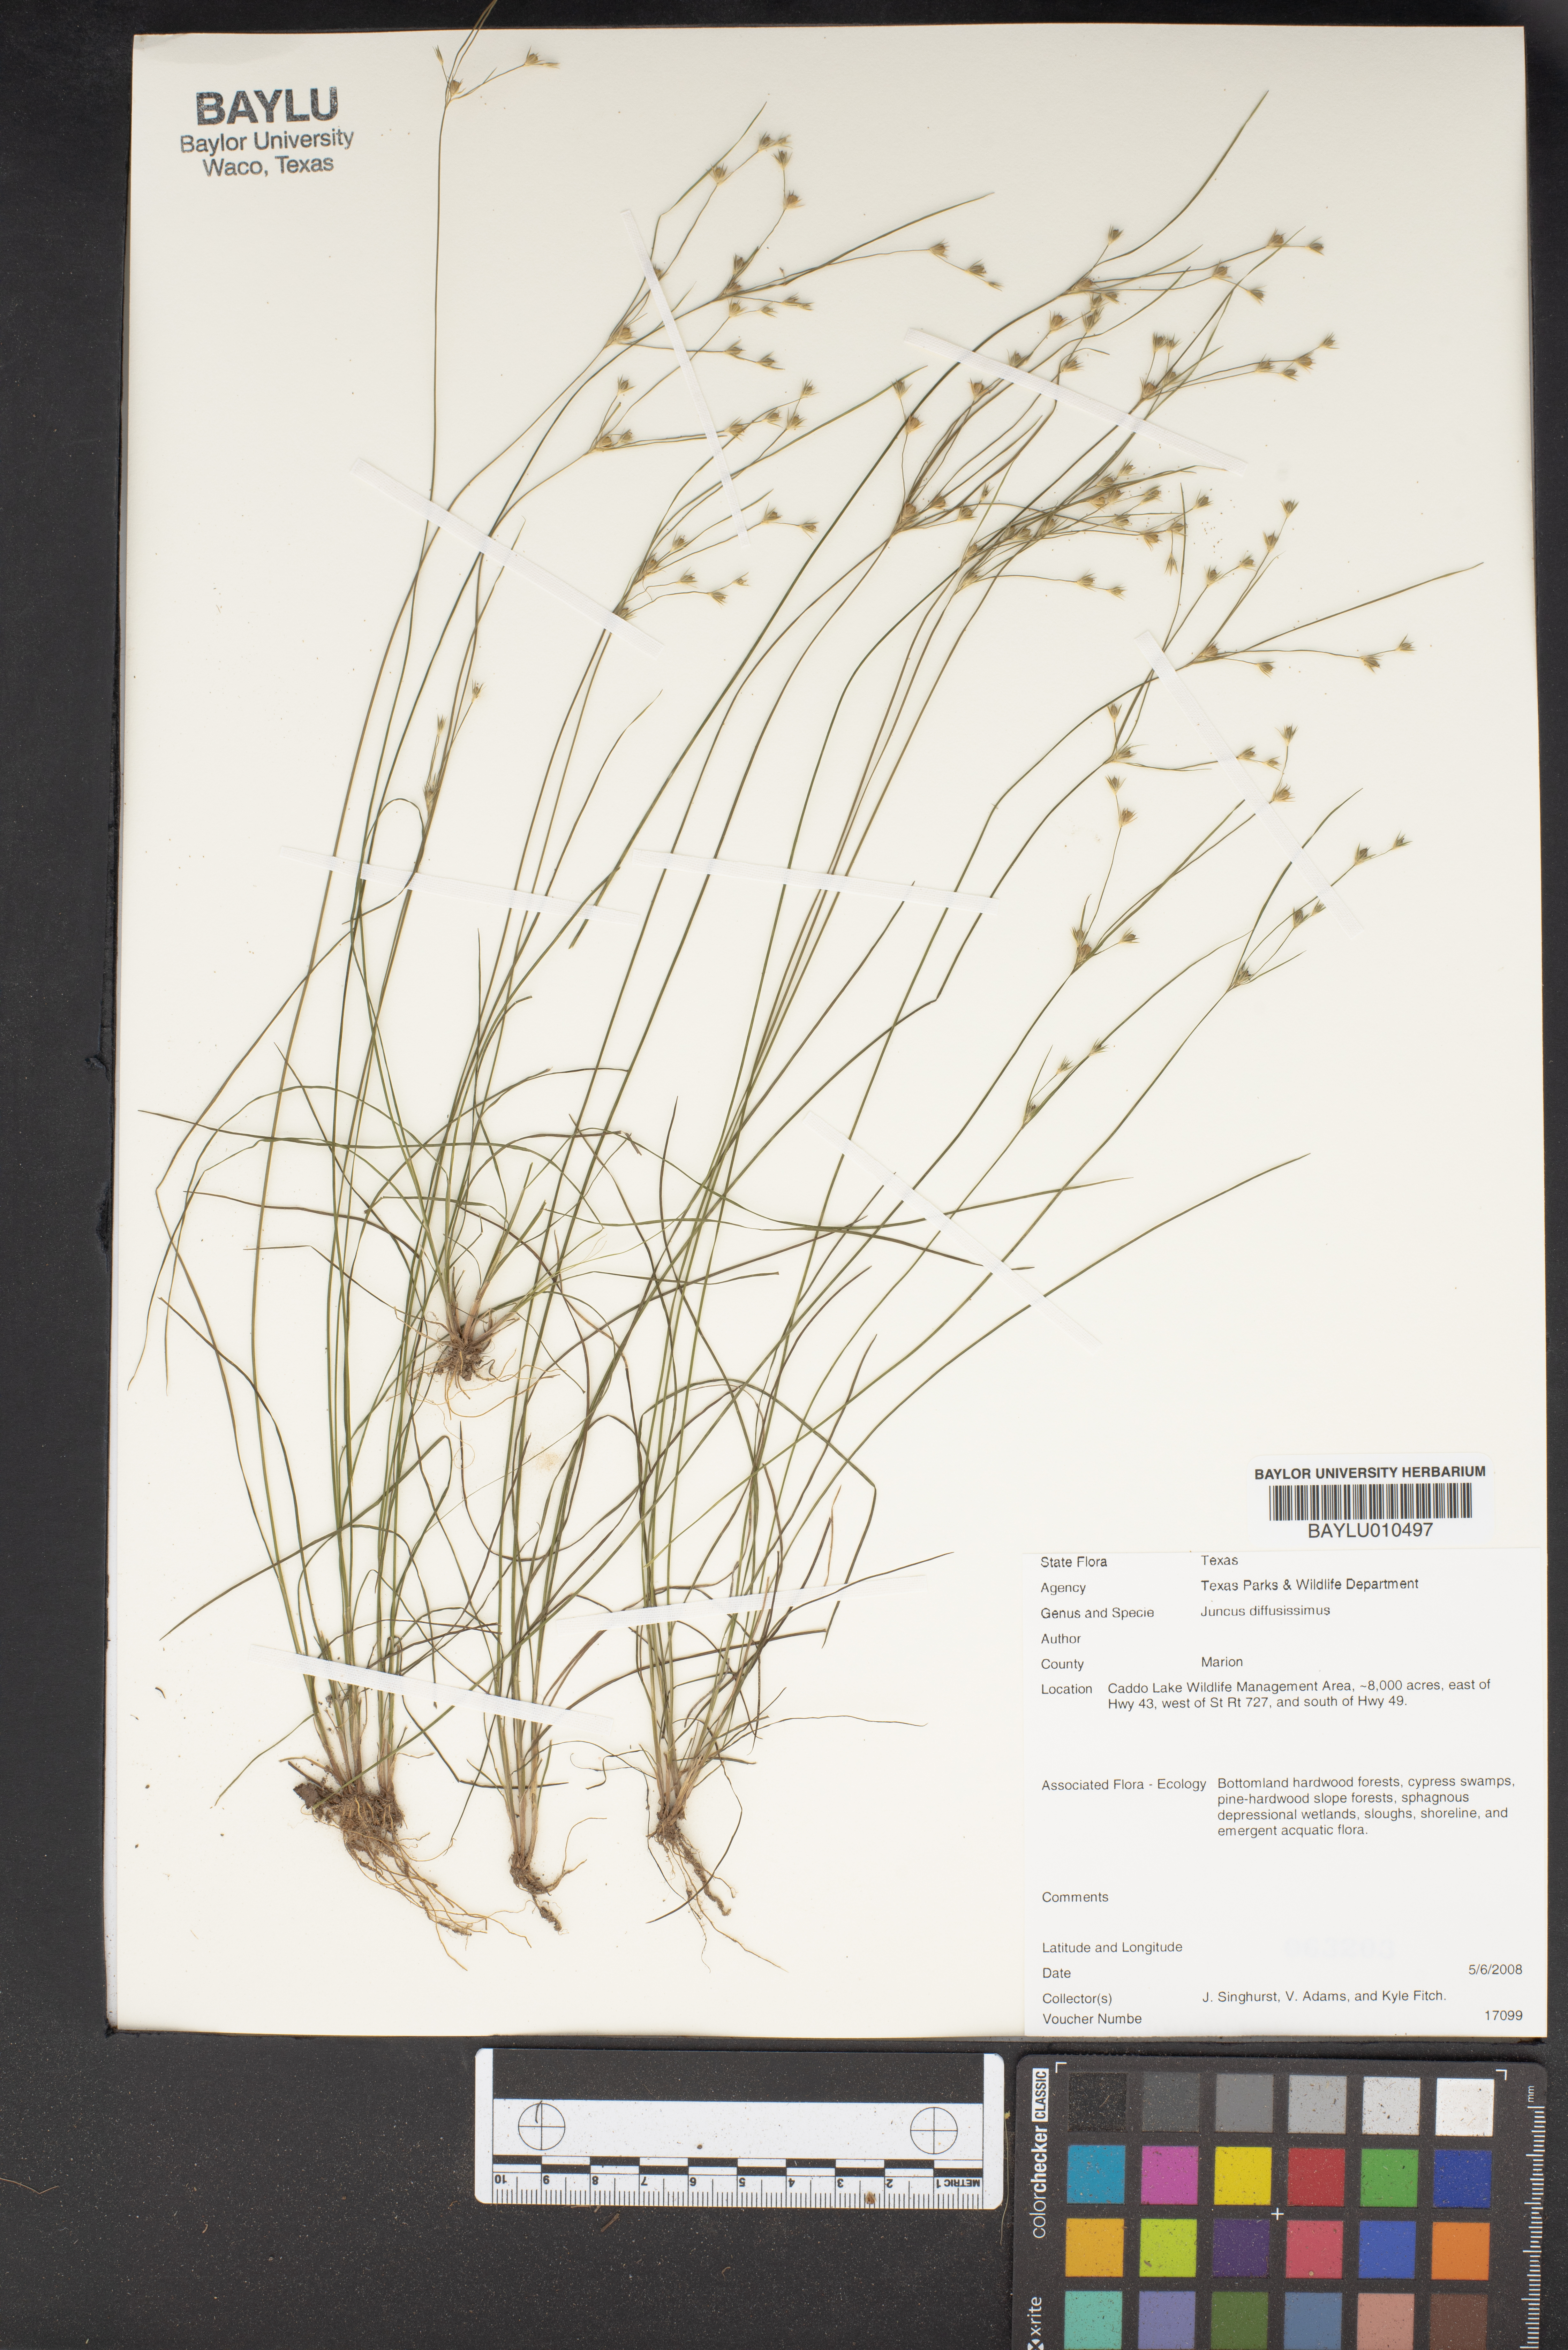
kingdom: Plantae
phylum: Tracheophyta
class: Liliopsida
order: Poales
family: Juncaceae
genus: Juncus
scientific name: Juncus diffusissimus
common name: Slimpod rush
